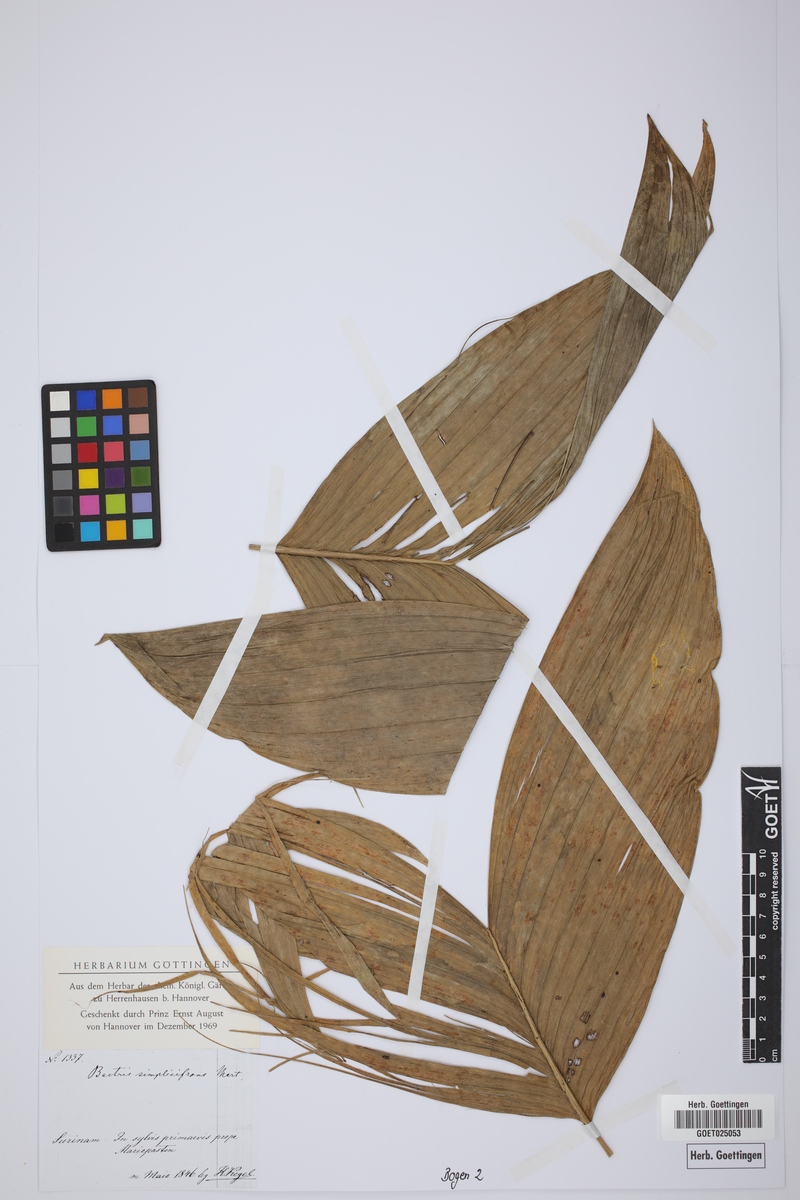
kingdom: Plantae
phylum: Tracheophyta
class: Liliopsida
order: Arecales
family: Arecaceae
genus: Bactris
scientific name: Bactris simplicifrons
